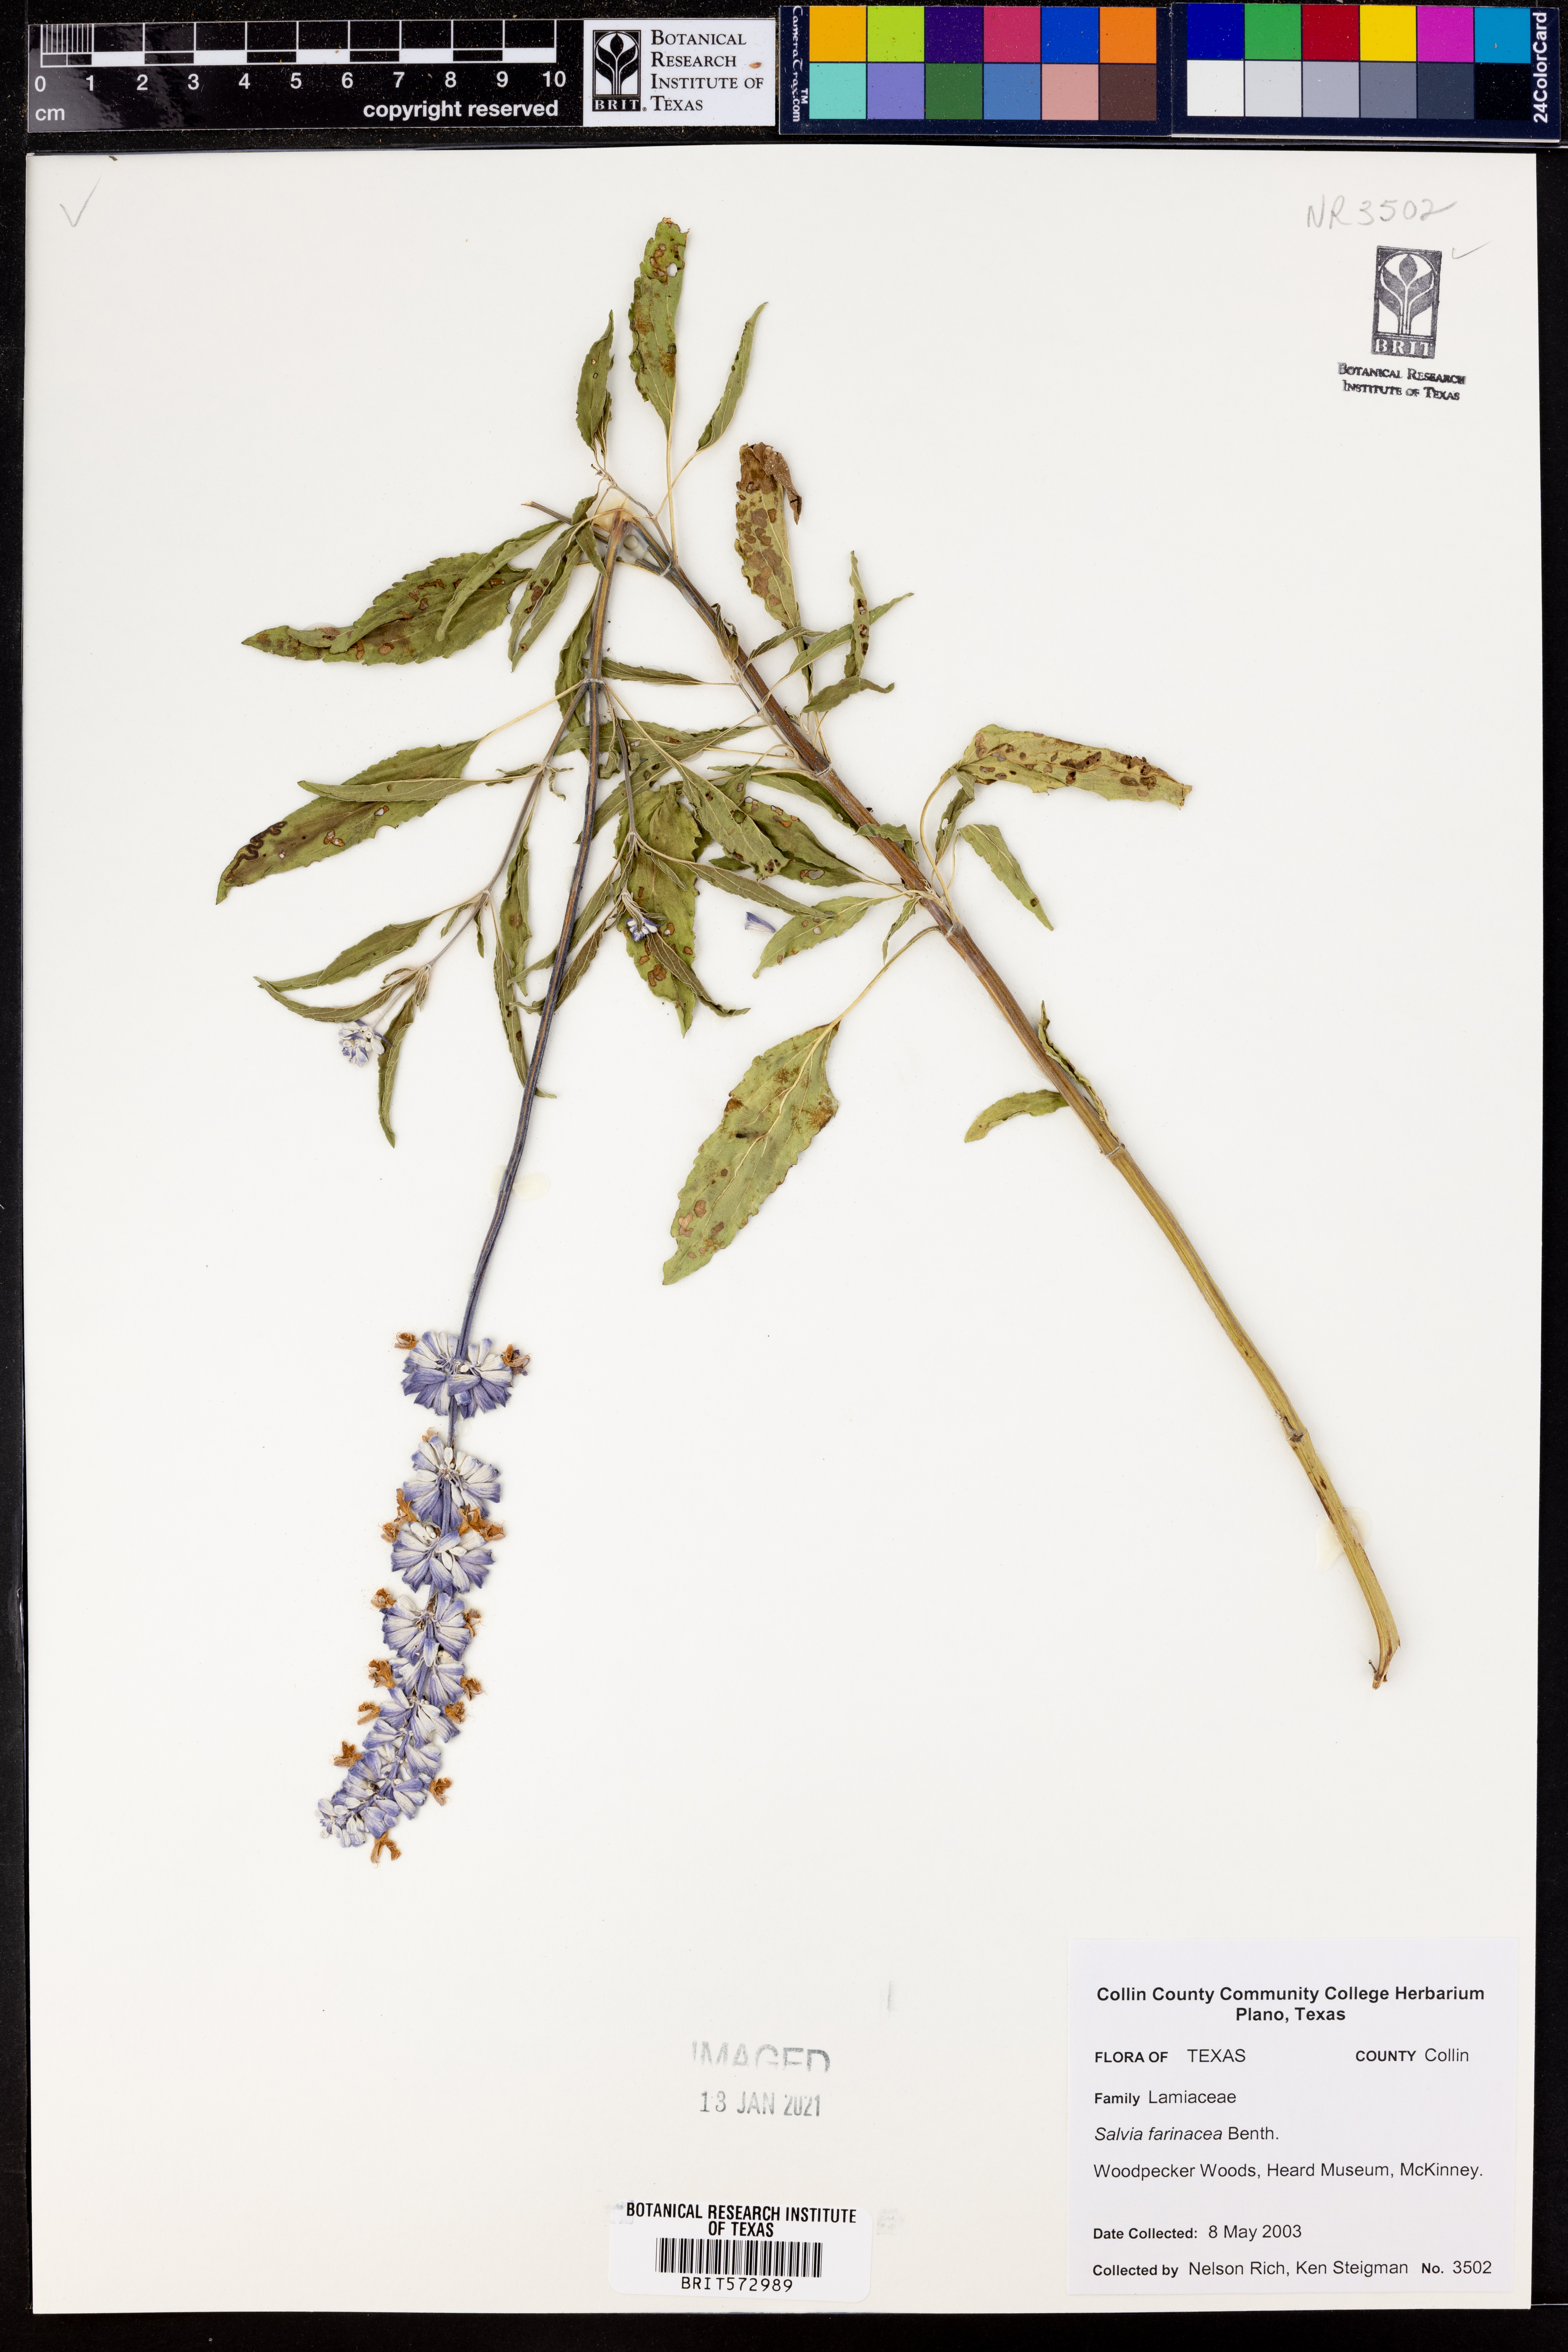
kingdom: Plantae
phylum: Tracheophyta
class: Magnoliopsida
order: Lamiales
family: Lamiaceae
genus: Salvia
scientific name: Salvia farinacea
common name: Mealy sage
